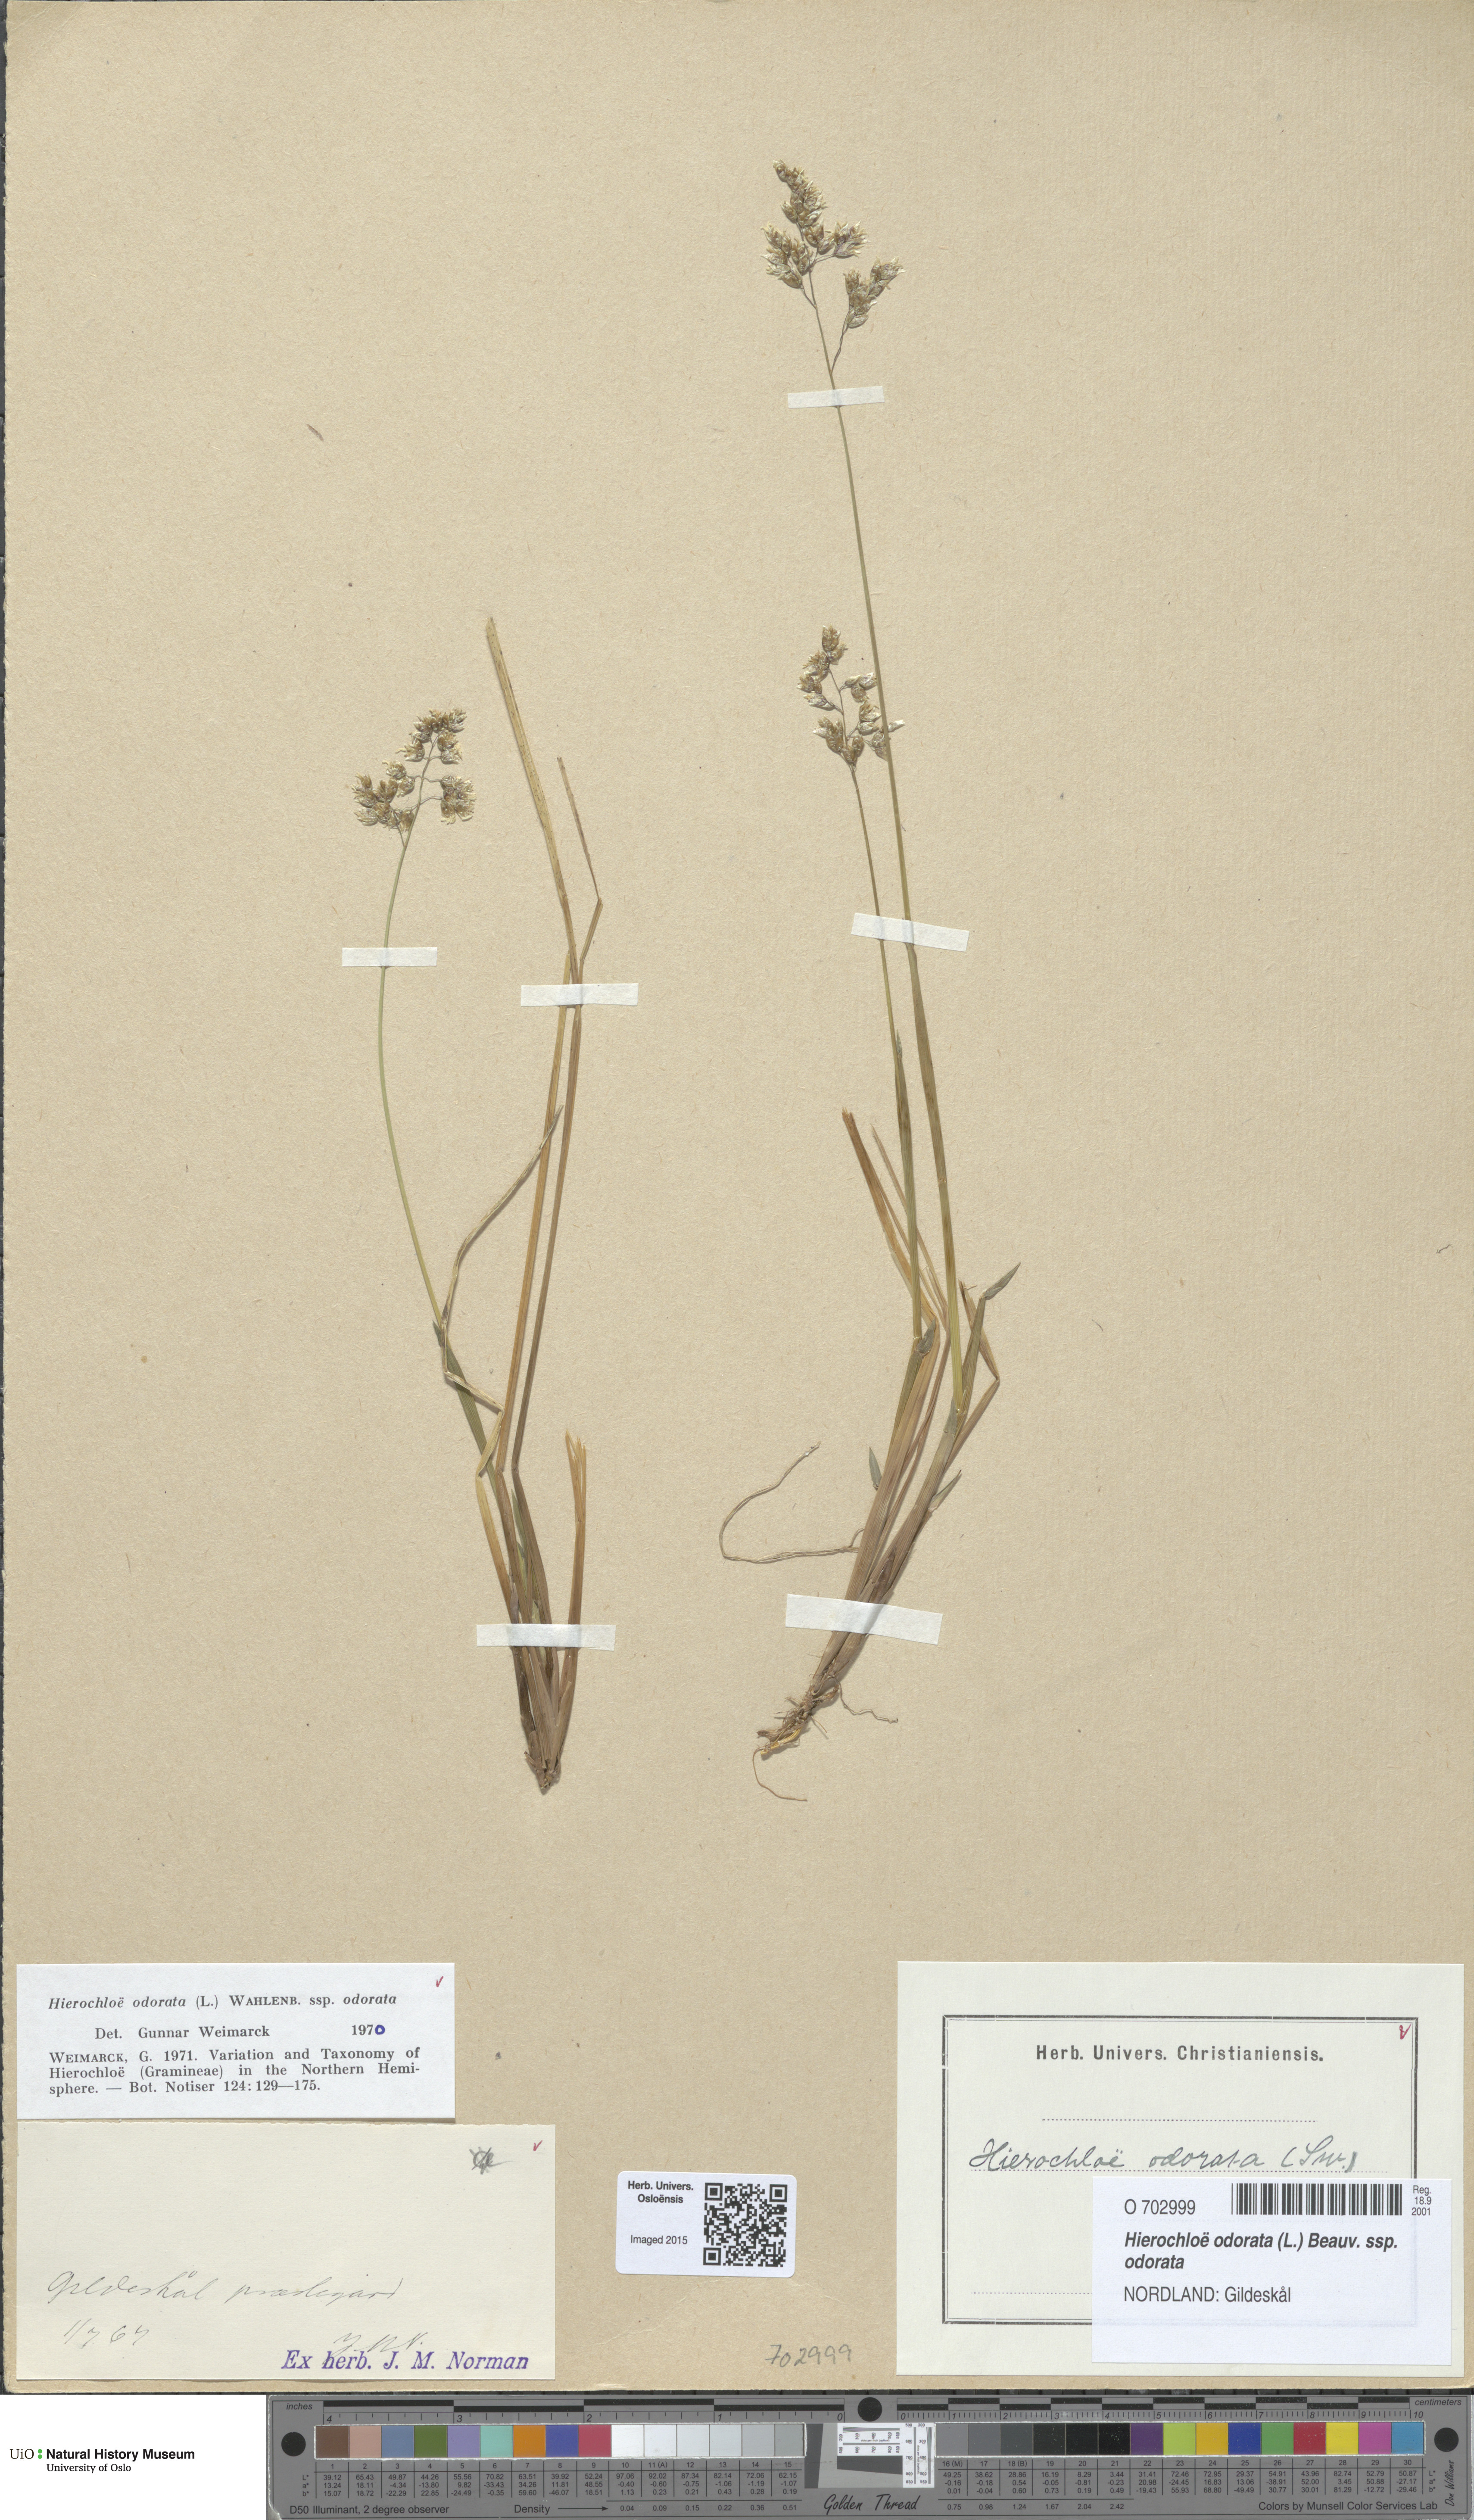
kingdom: Plantae
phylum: Tracheophyta
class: Liliopsida
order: Poales
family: Poaceae
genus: Anthoxanthum
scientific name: Anthoxanthum nitens
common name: Holy grass
